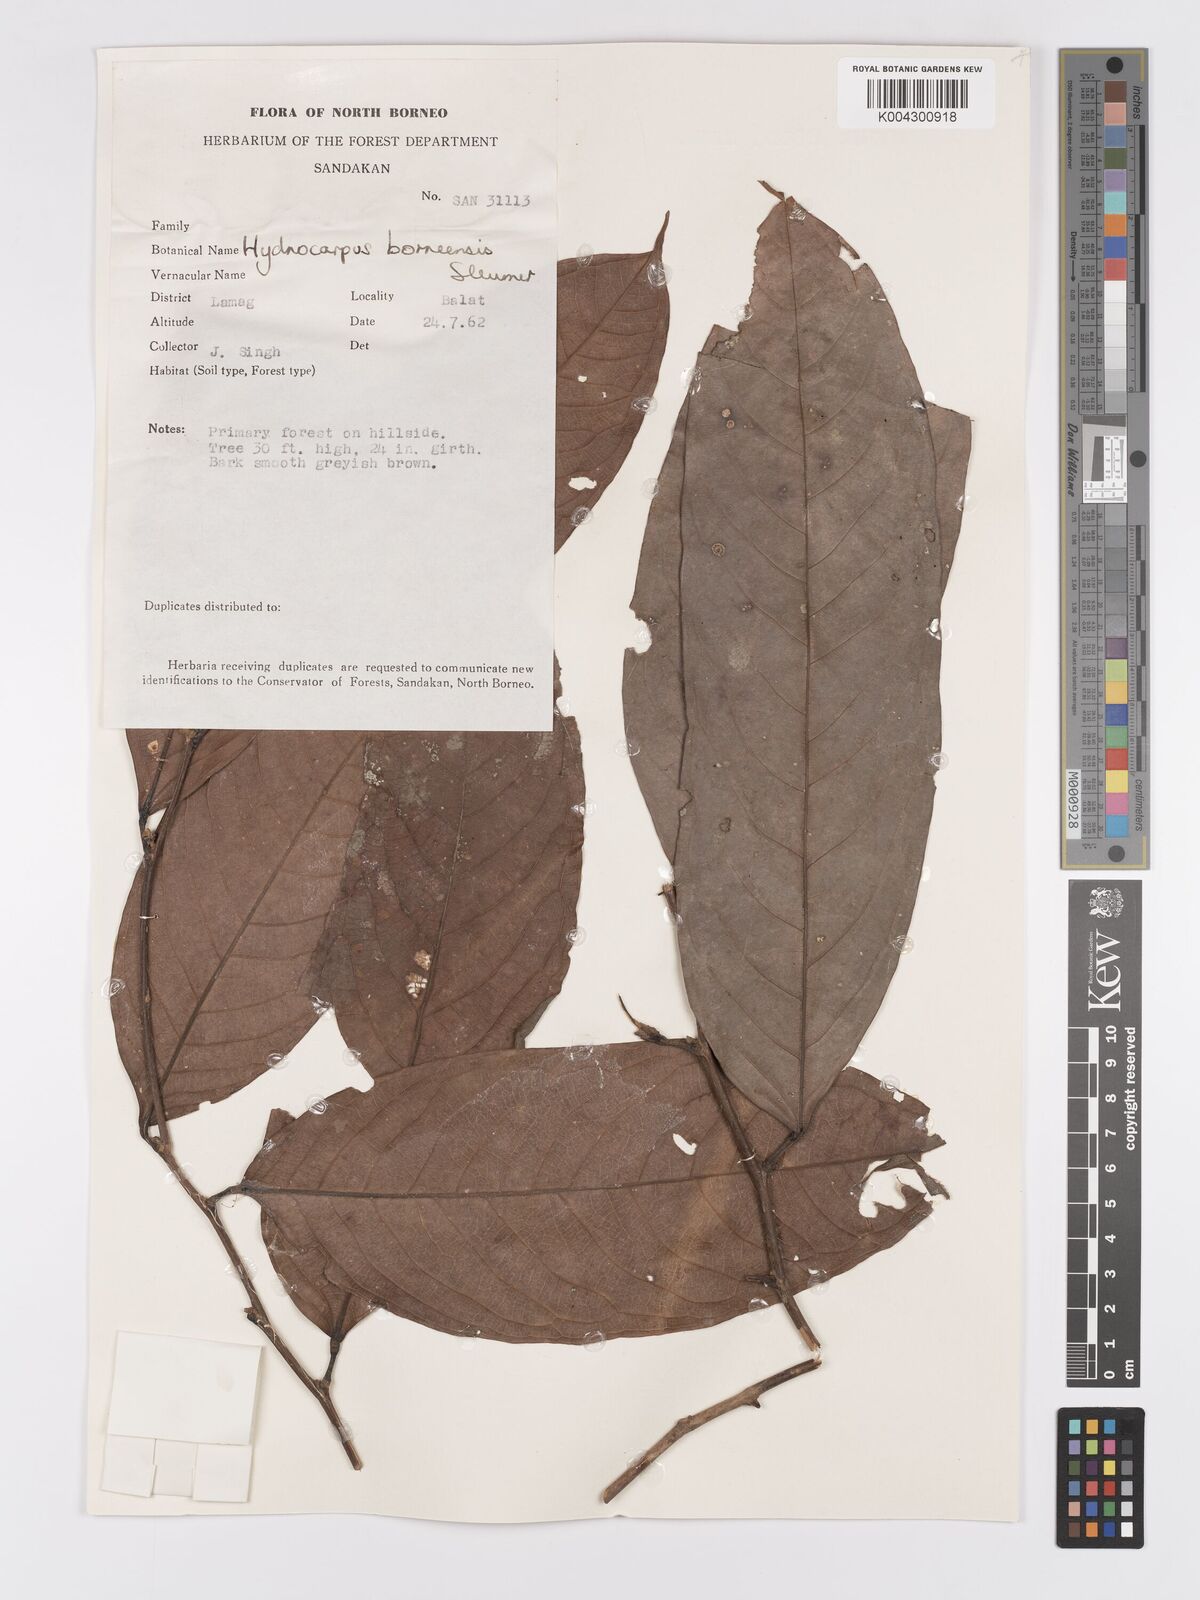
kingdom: Plantae
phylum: Tracheophyta
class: Magnoliopsida
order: Malpighiales
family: Achariaceae
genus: Hydnocarpus
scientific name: Hydnocarpus borneensis
